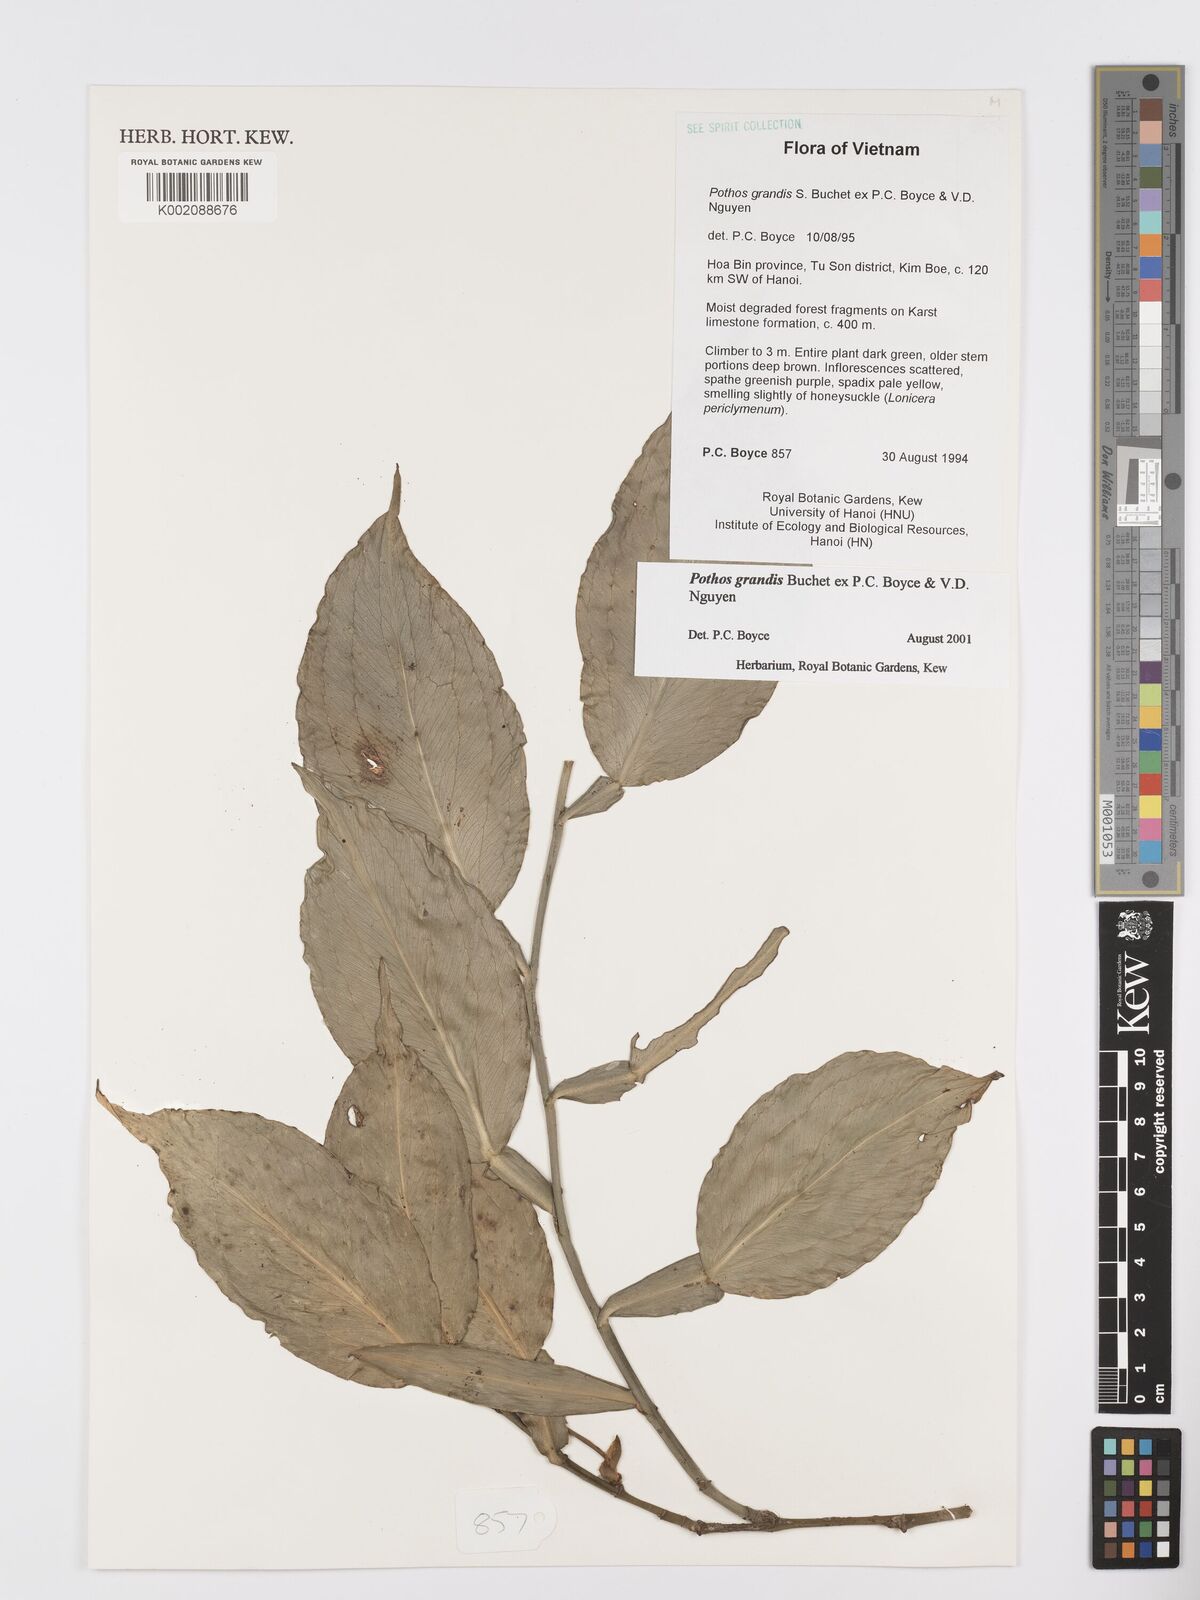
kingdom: Plantae
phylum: Tracheophyta
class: Liliopsida
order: Alismatales
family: Araceae
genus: Pothos
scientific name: Pothos grandis
